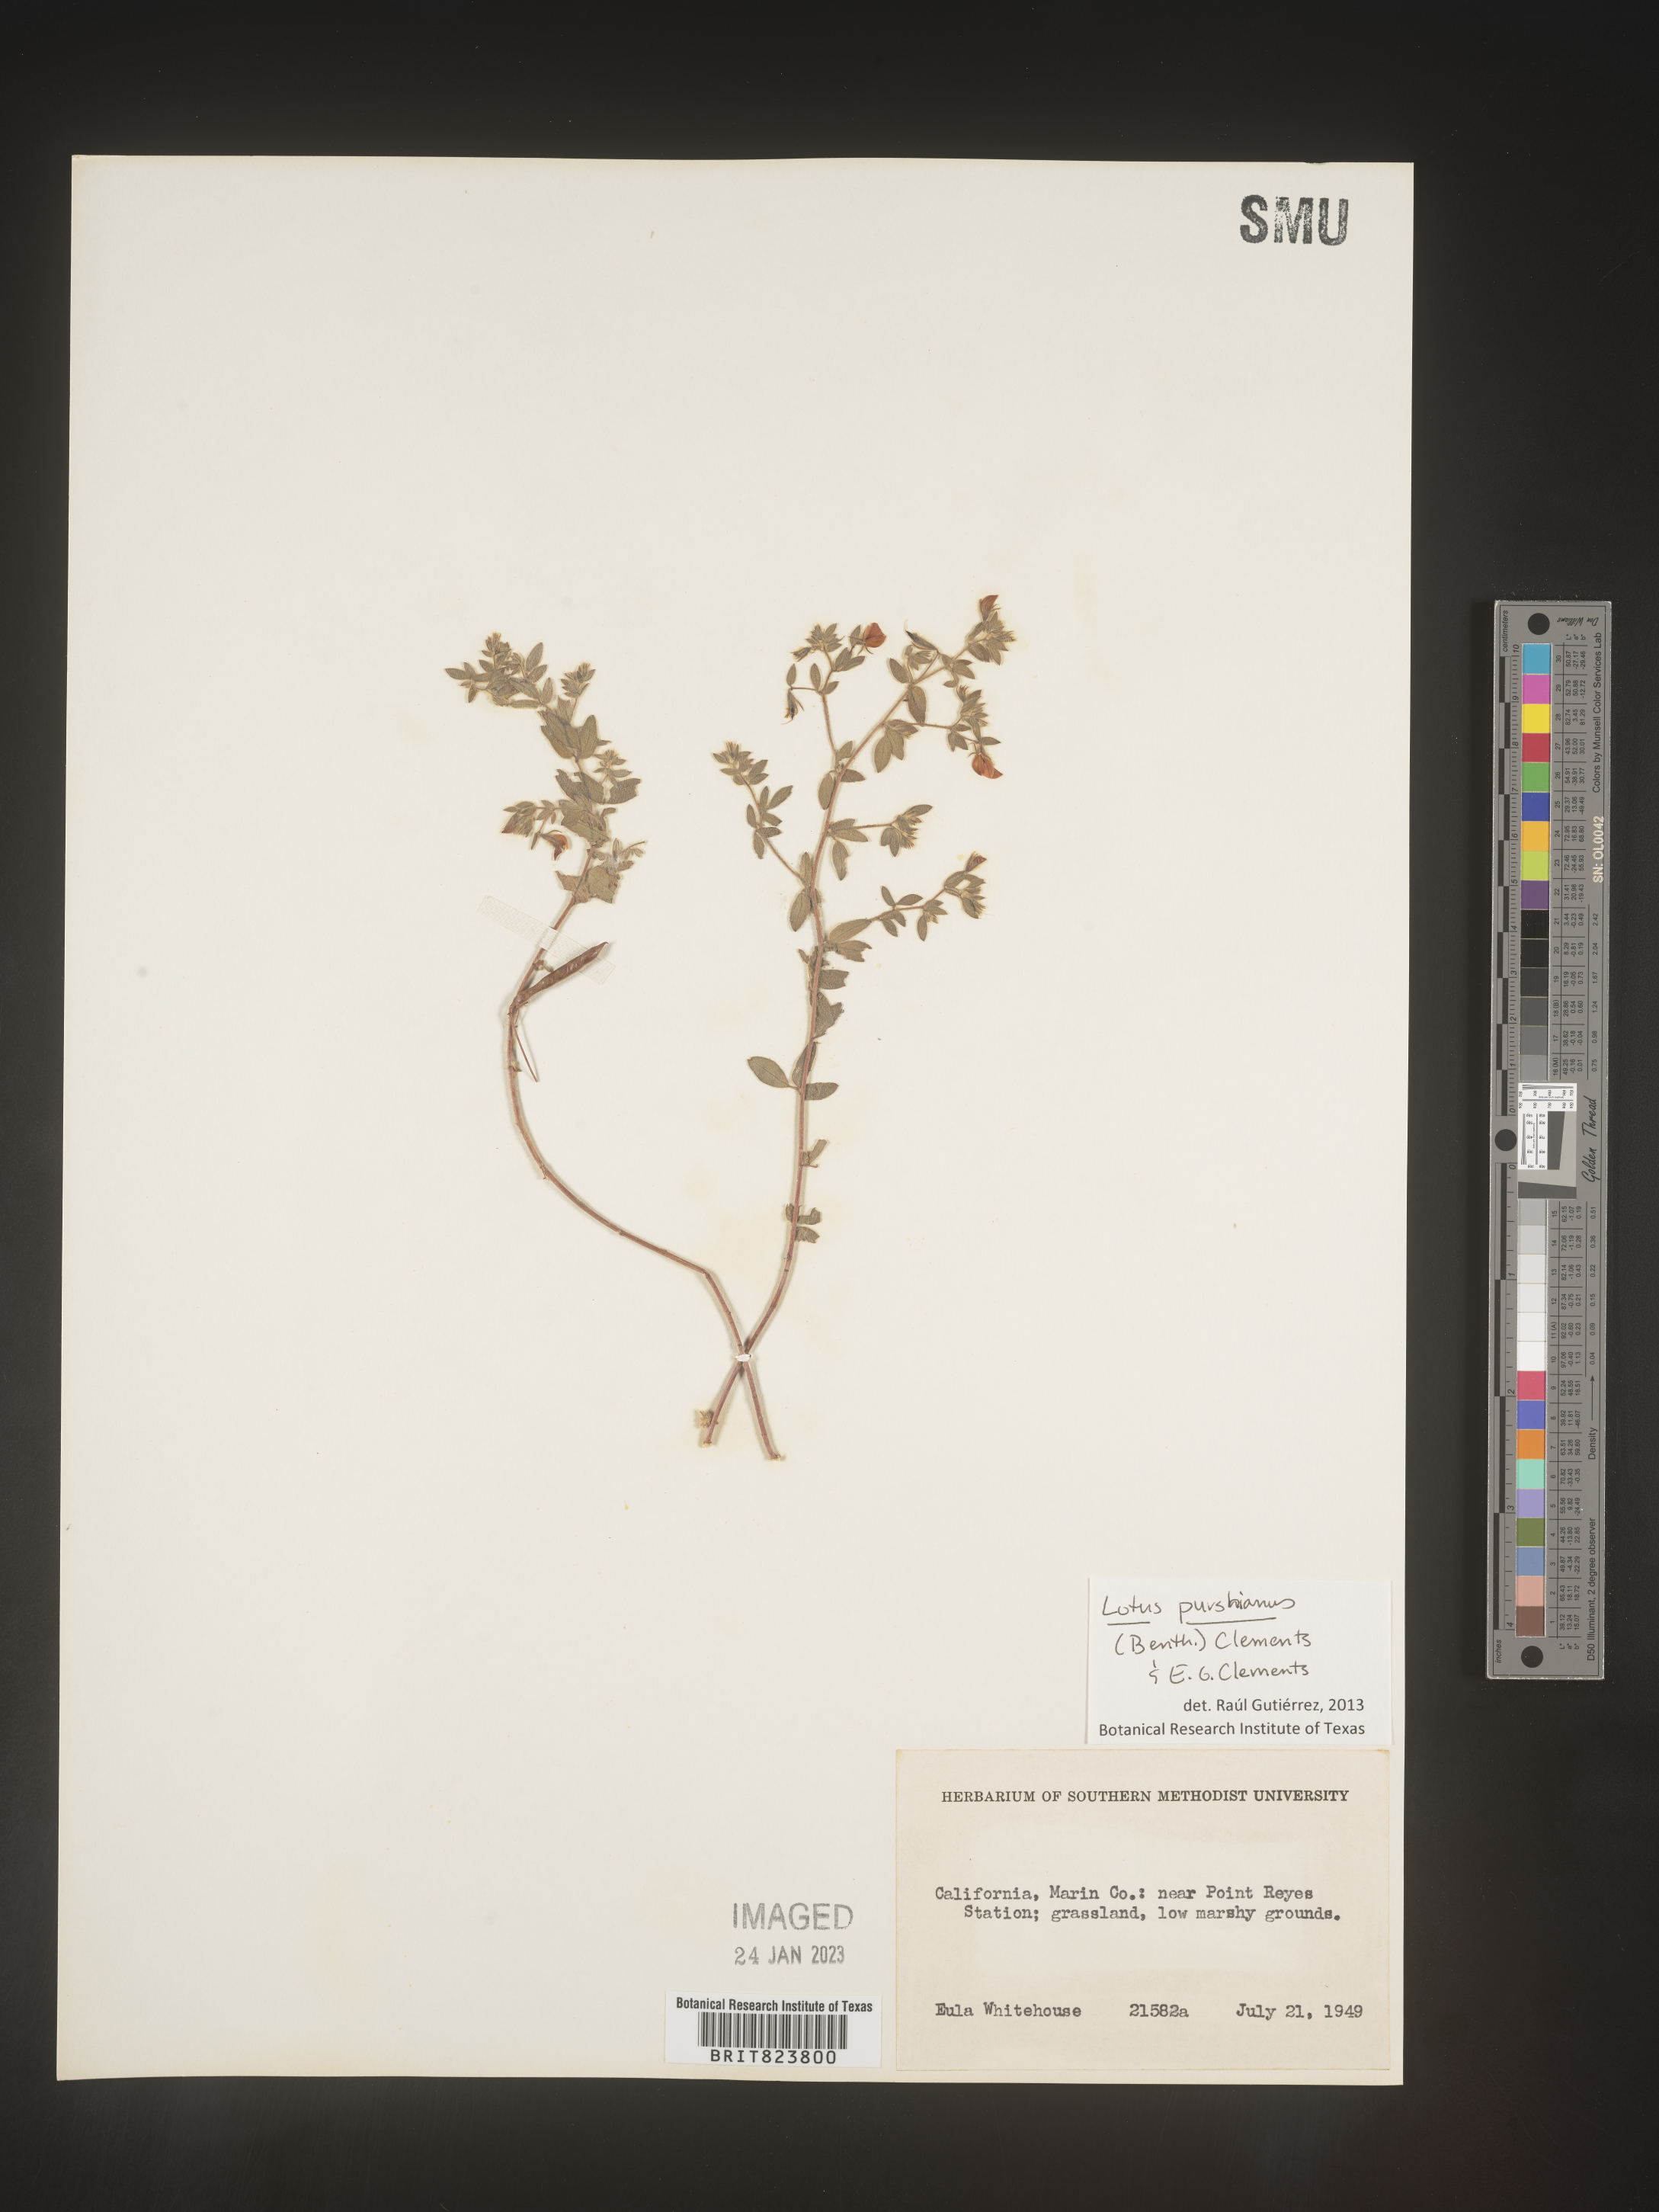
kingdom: Plantae
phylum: Tracheophyta
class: Magnoliopsida
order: Fabales
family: Fabaceae
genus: Acmispon
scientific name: Acmispon americanus
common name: American bird's-foot trefoil
